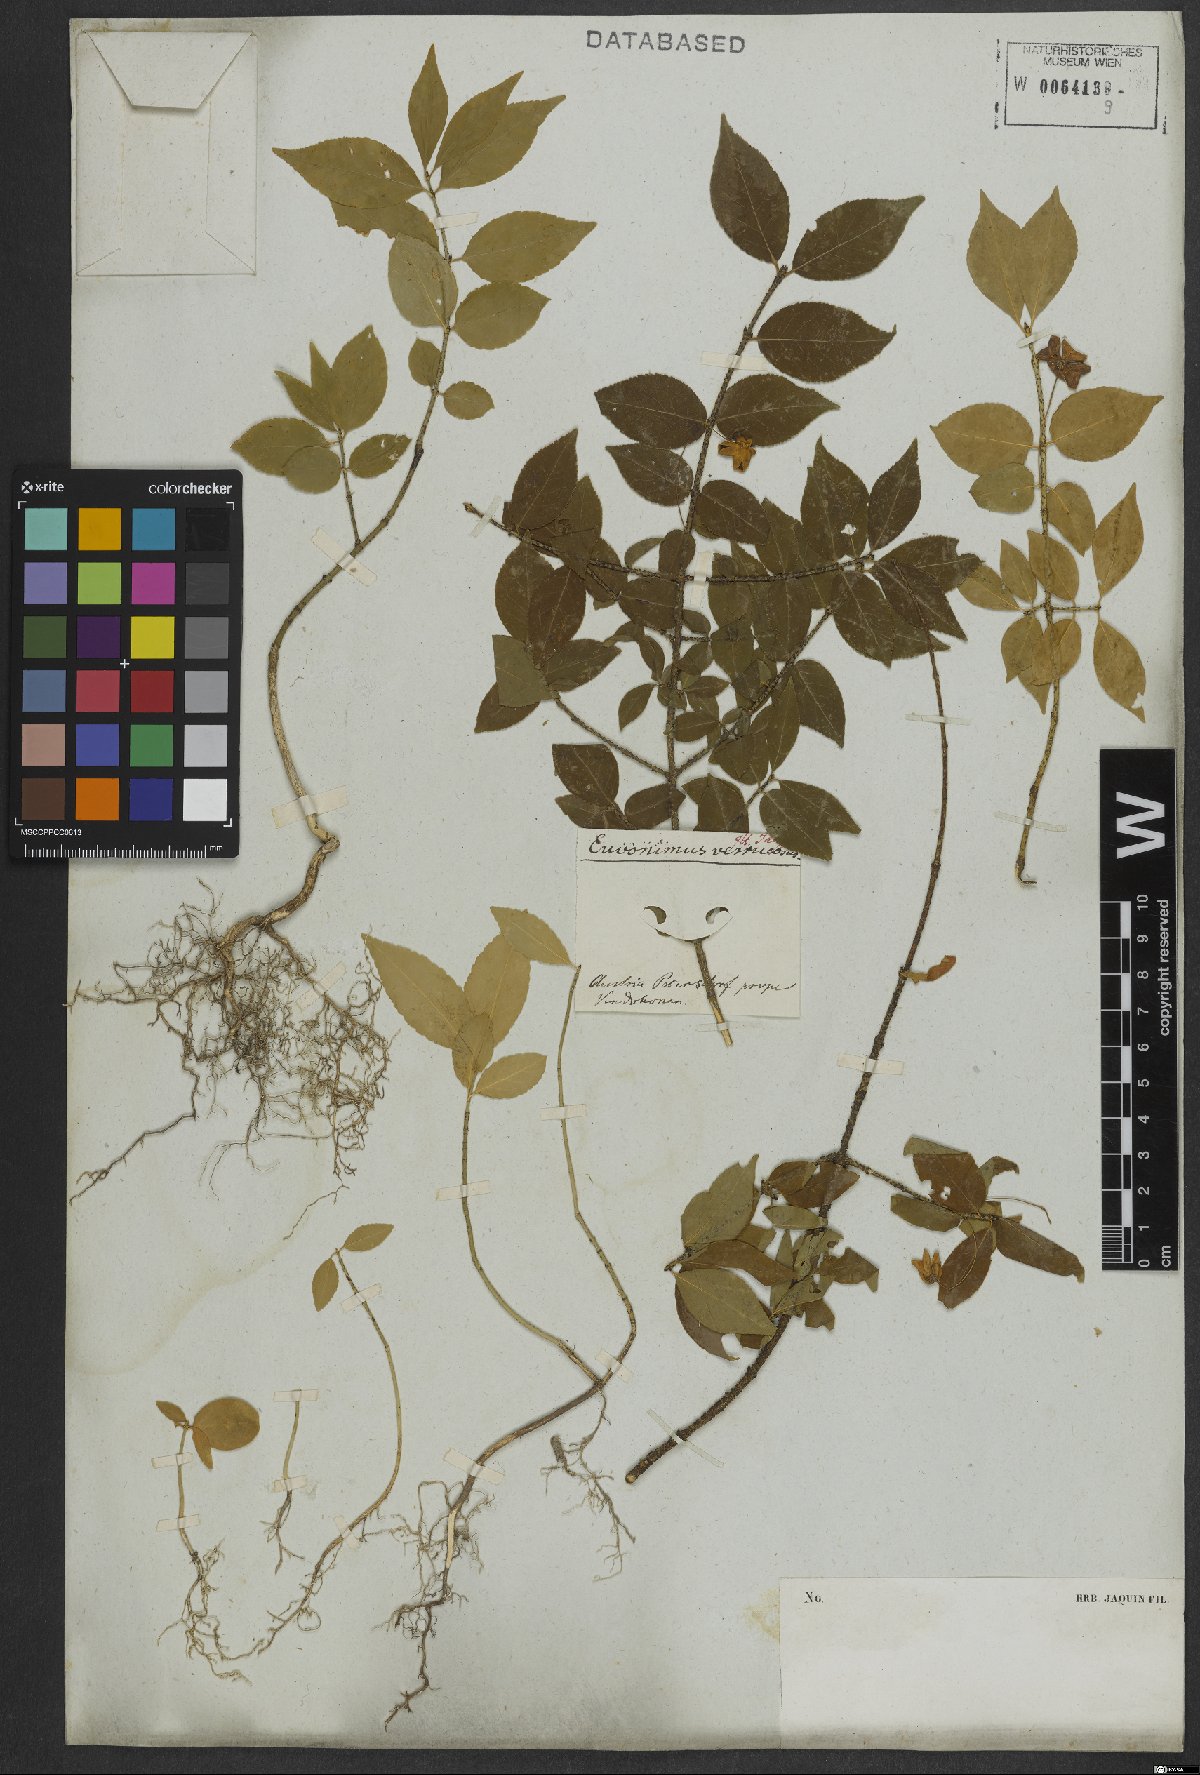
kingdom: Plantae
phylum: Tracheophyta
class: Magnoliopsida
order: Celastrales
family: Celastraceae
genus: Euonymus
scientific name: Euonymus verrucosus
